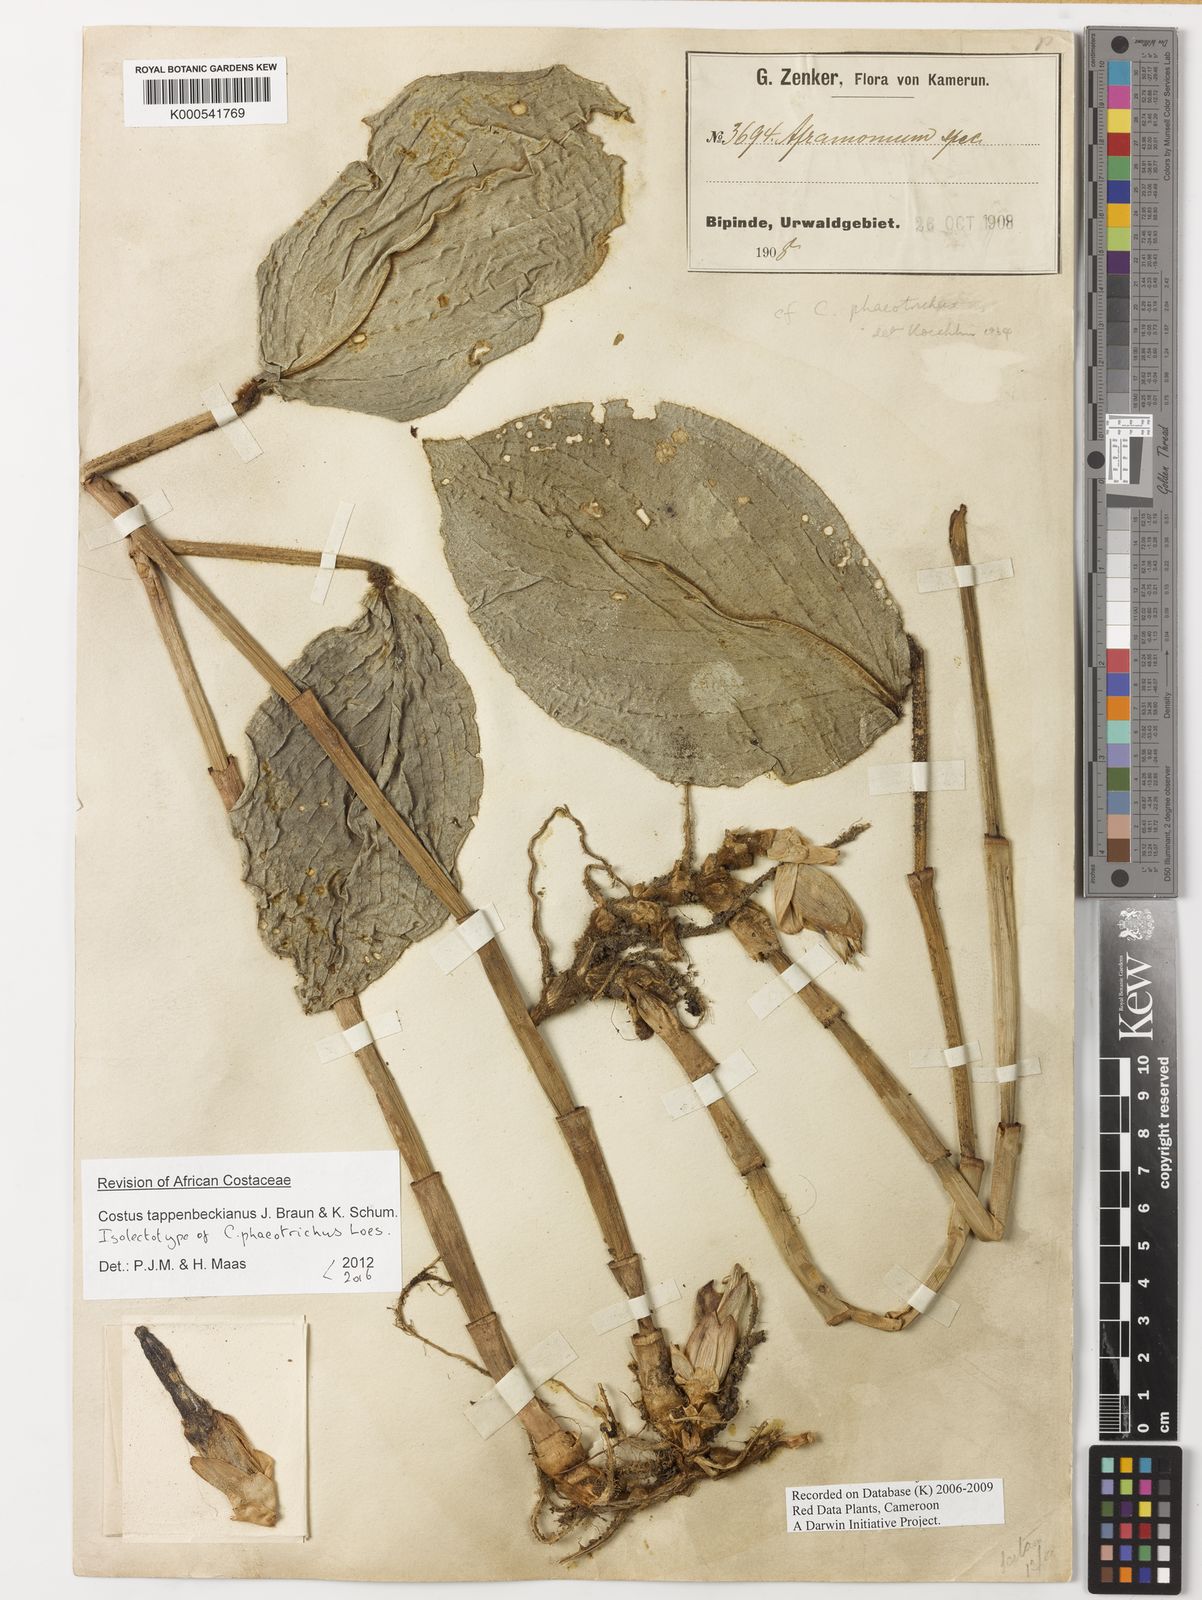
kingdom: Plantae
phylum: Tracheophyta
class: Liliopsida
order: Zingiberales
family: Costaceae
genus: Costus
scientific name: Costus tappenbeckianus
